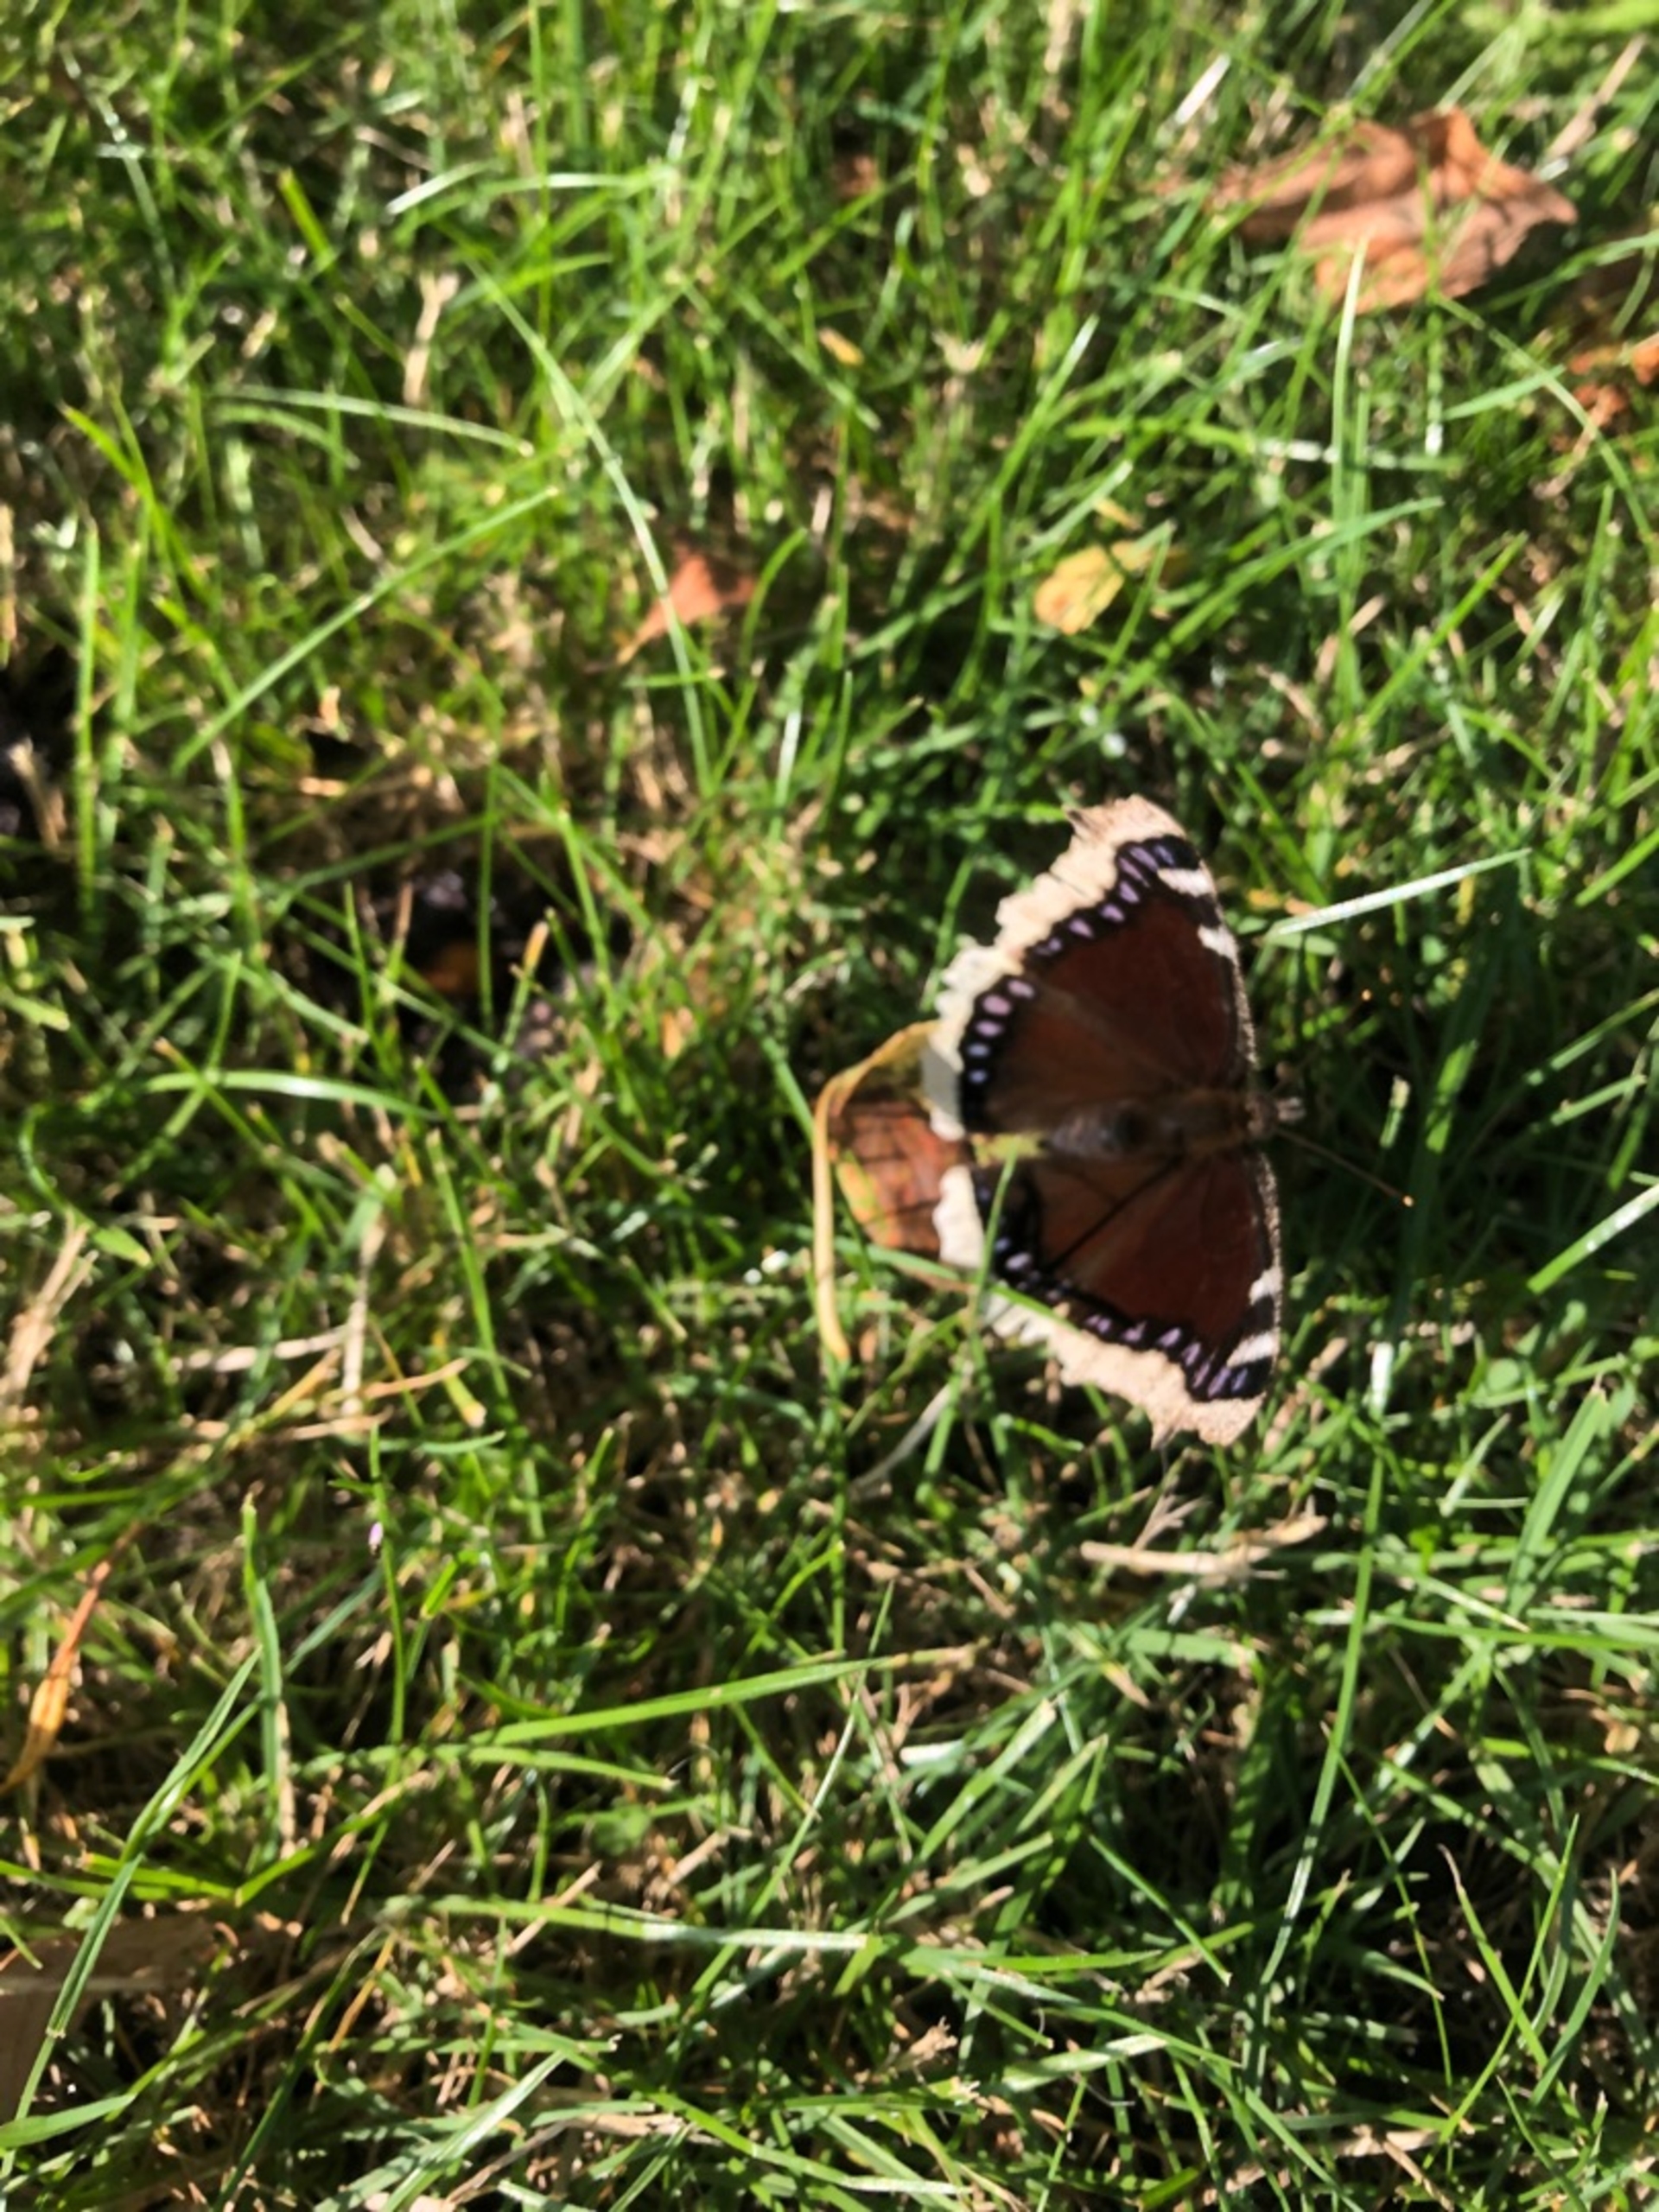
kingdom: Animalia
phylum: Arthropoda
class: Insecta
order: Lepidoptera
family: Nymphalidae
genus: Nymphalis
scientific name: Nymphalis antiopa
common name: Sørgekåbe
